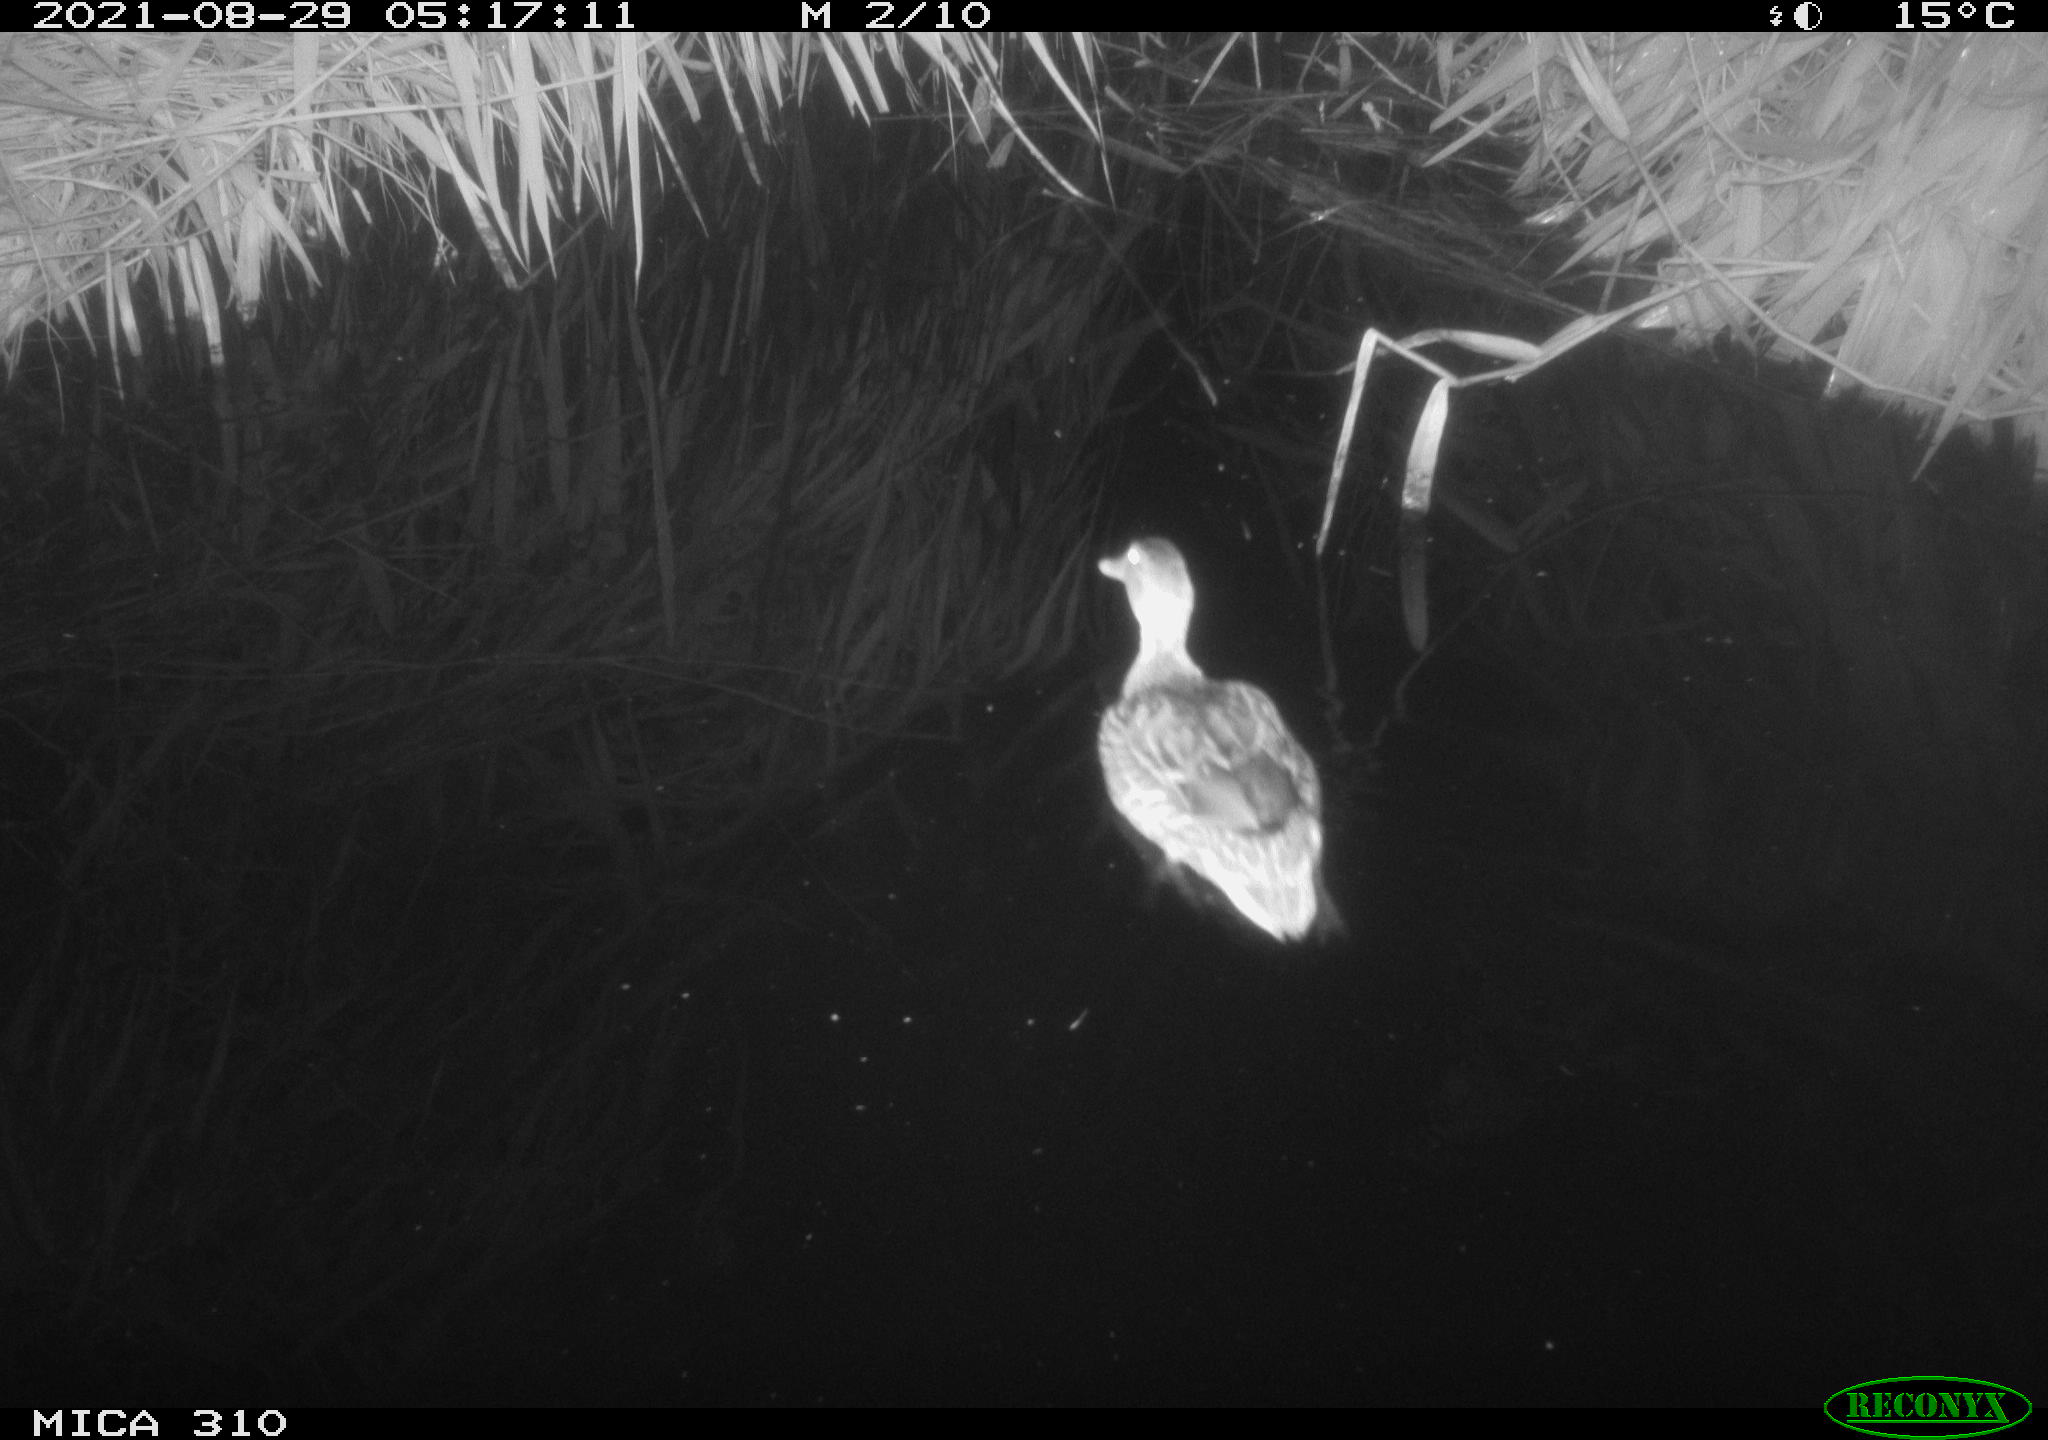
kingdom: Animalia
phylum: Chordata
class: Aves
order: Anseriformes
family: Anatidae
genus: Anas
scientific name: Anas platyrhynchos
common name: Mallard
